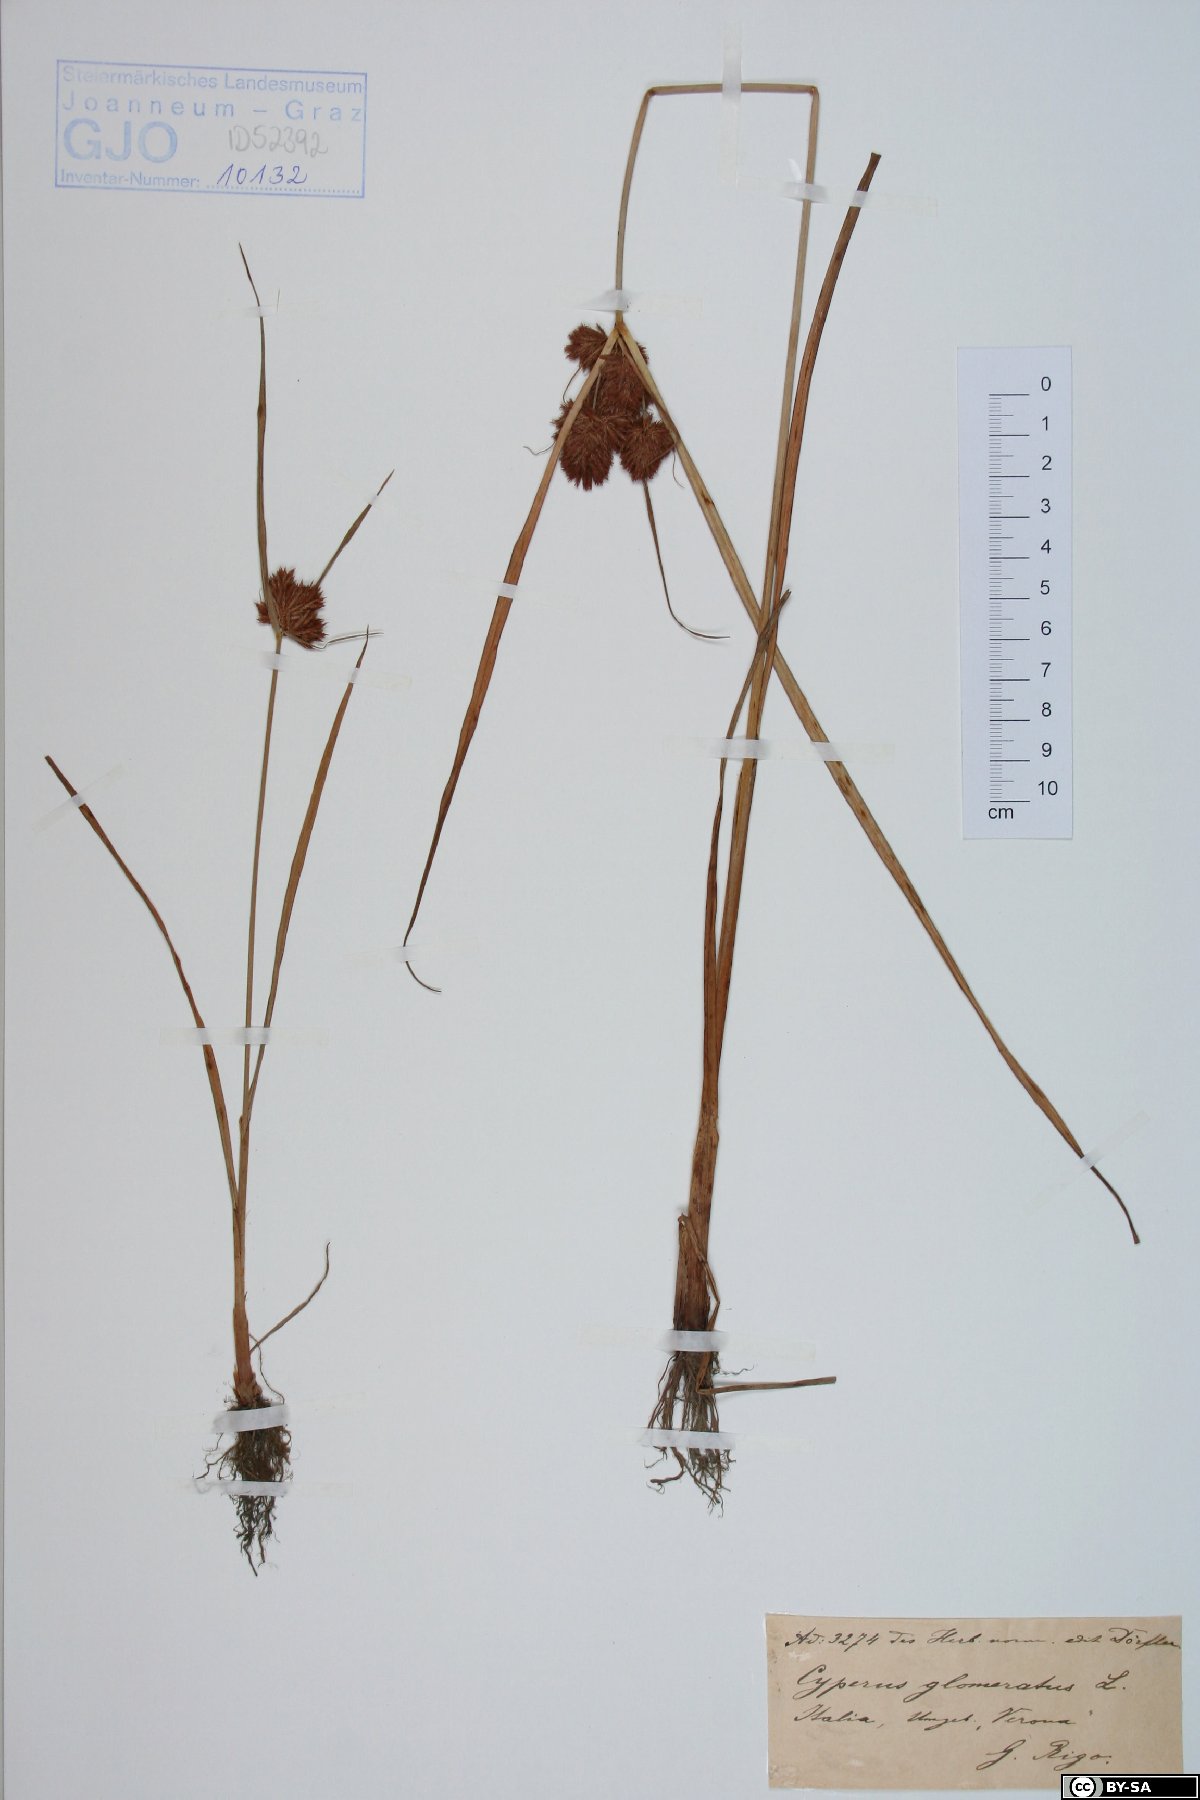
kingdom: Plantae
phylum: Tracheophyta
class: Liliopsida
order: Poales
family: Cyperaceae
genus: Cyperus
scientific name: Cyperus glomeratus
